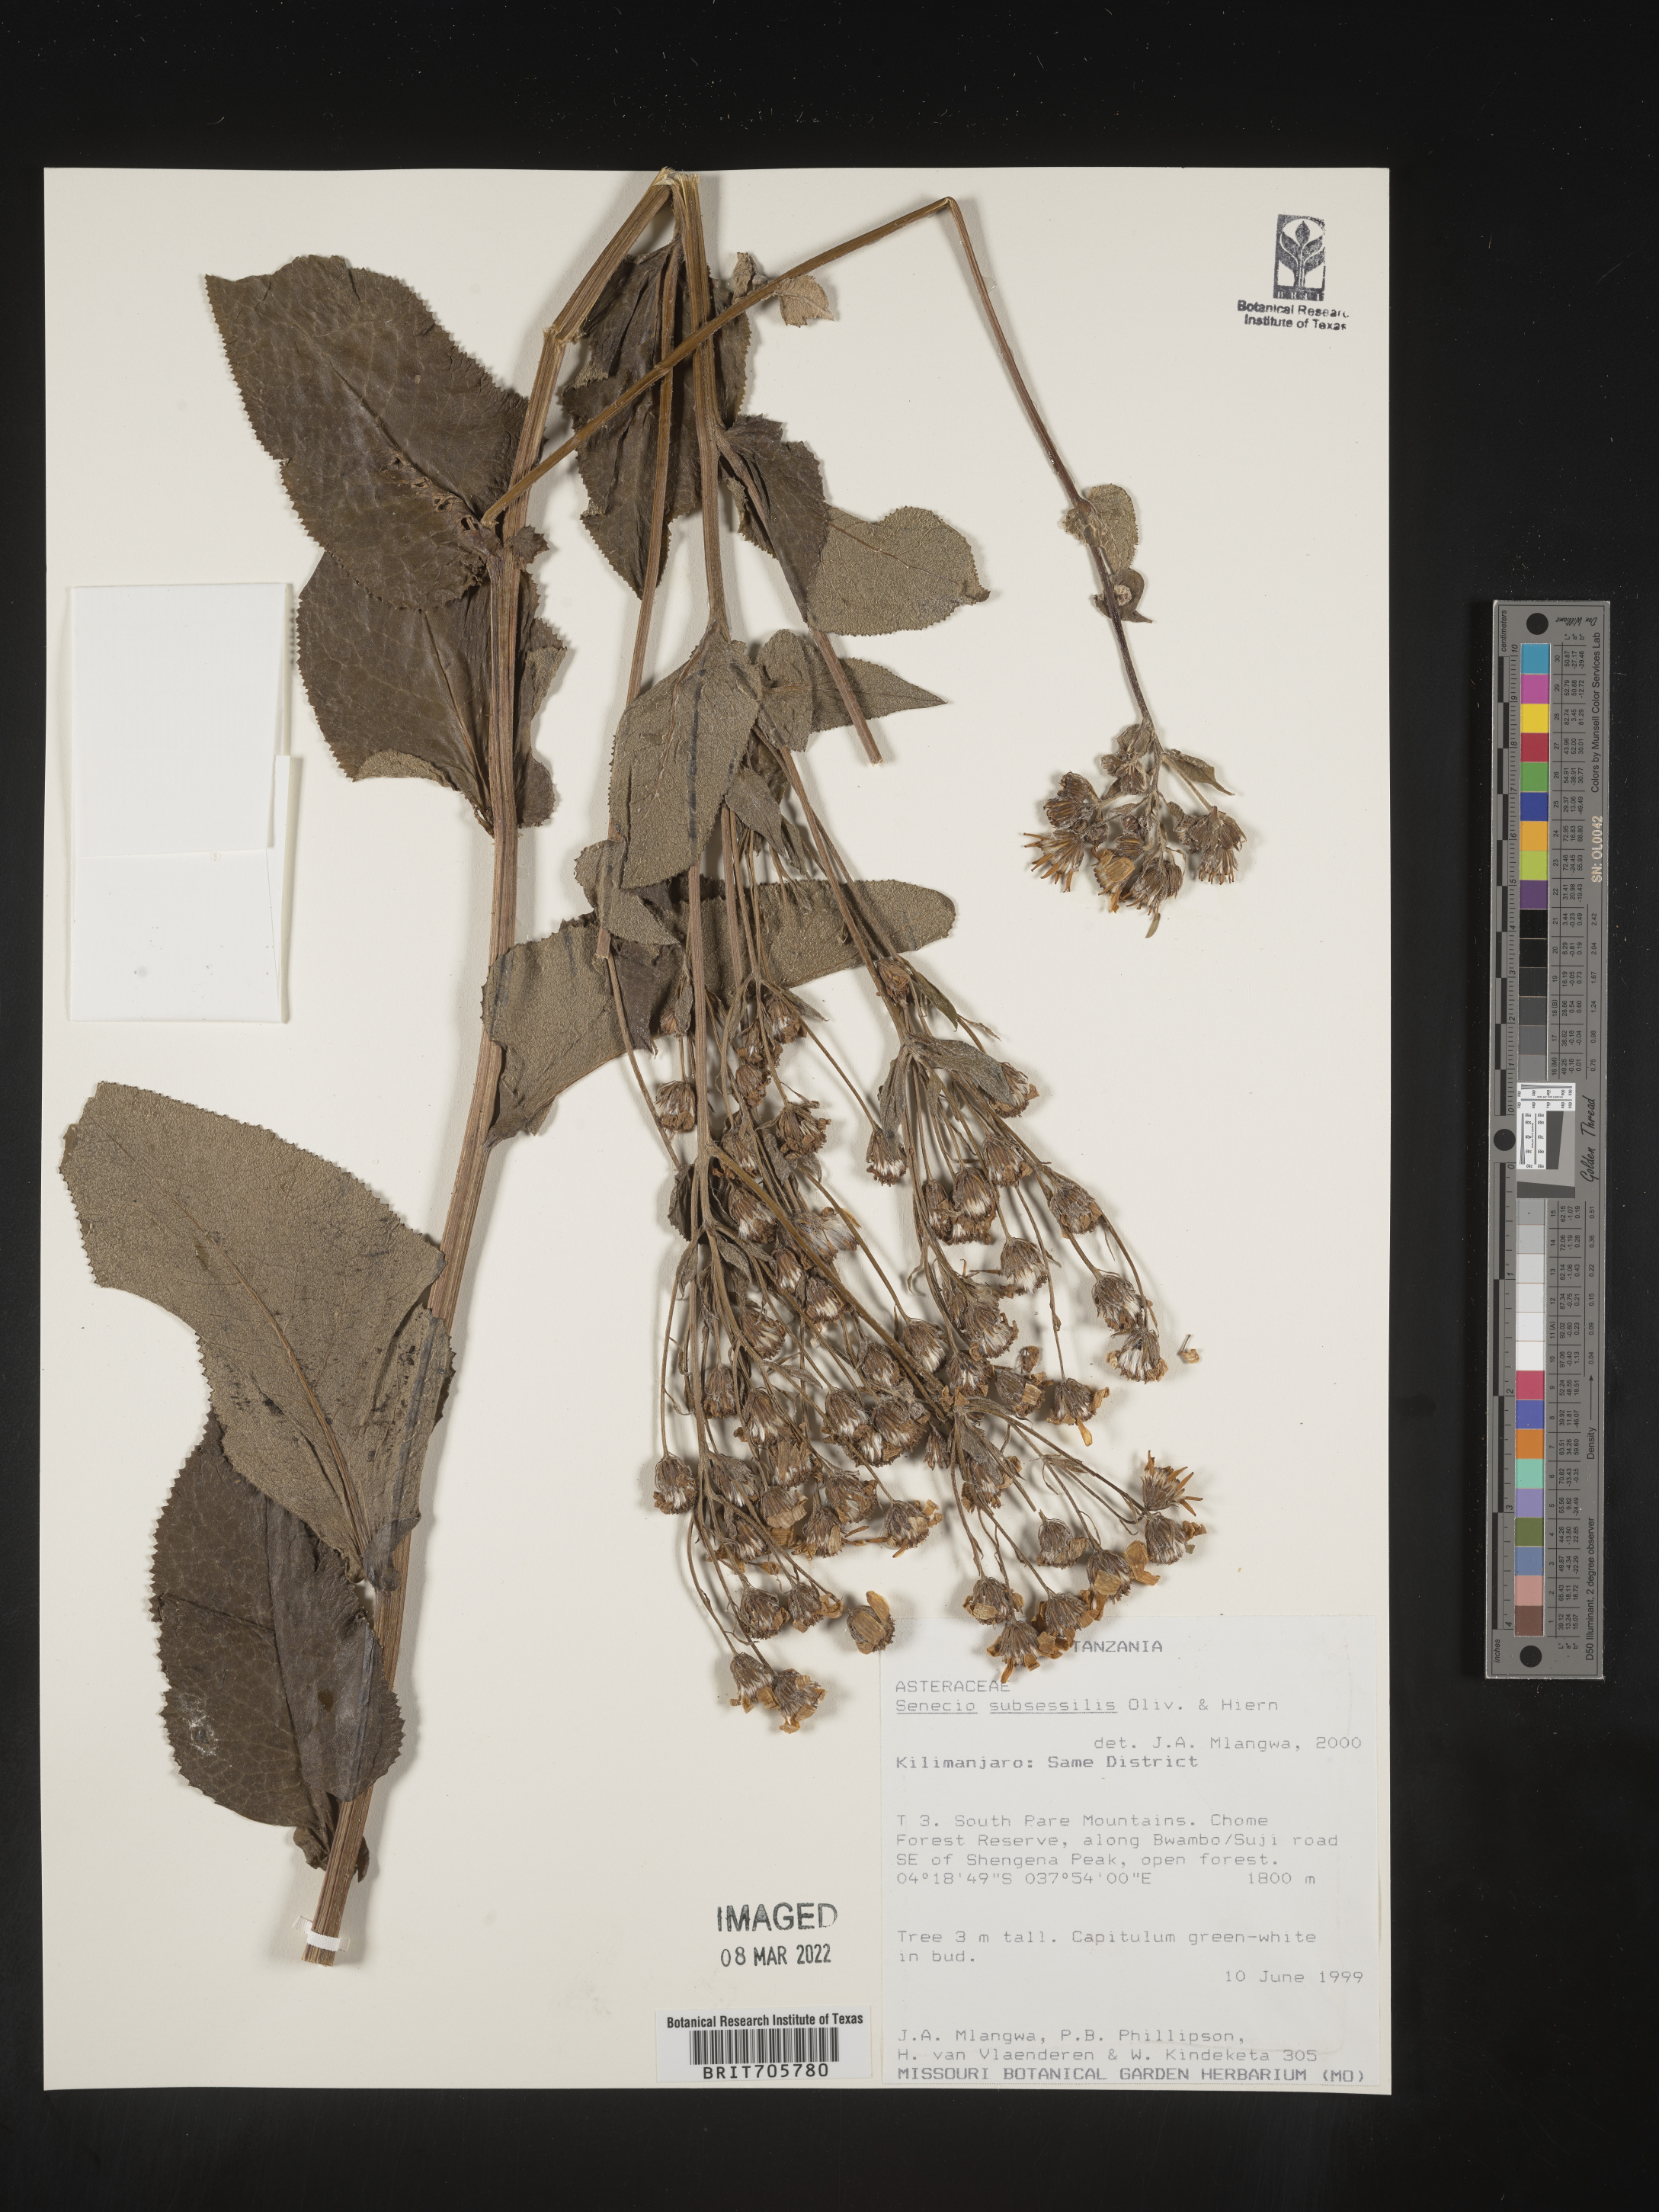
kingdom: Plantae
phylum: Tracheophyta
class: Magnoliopsida
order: Asterales
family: Asteraceae
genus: Senecio
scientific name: Senecio
